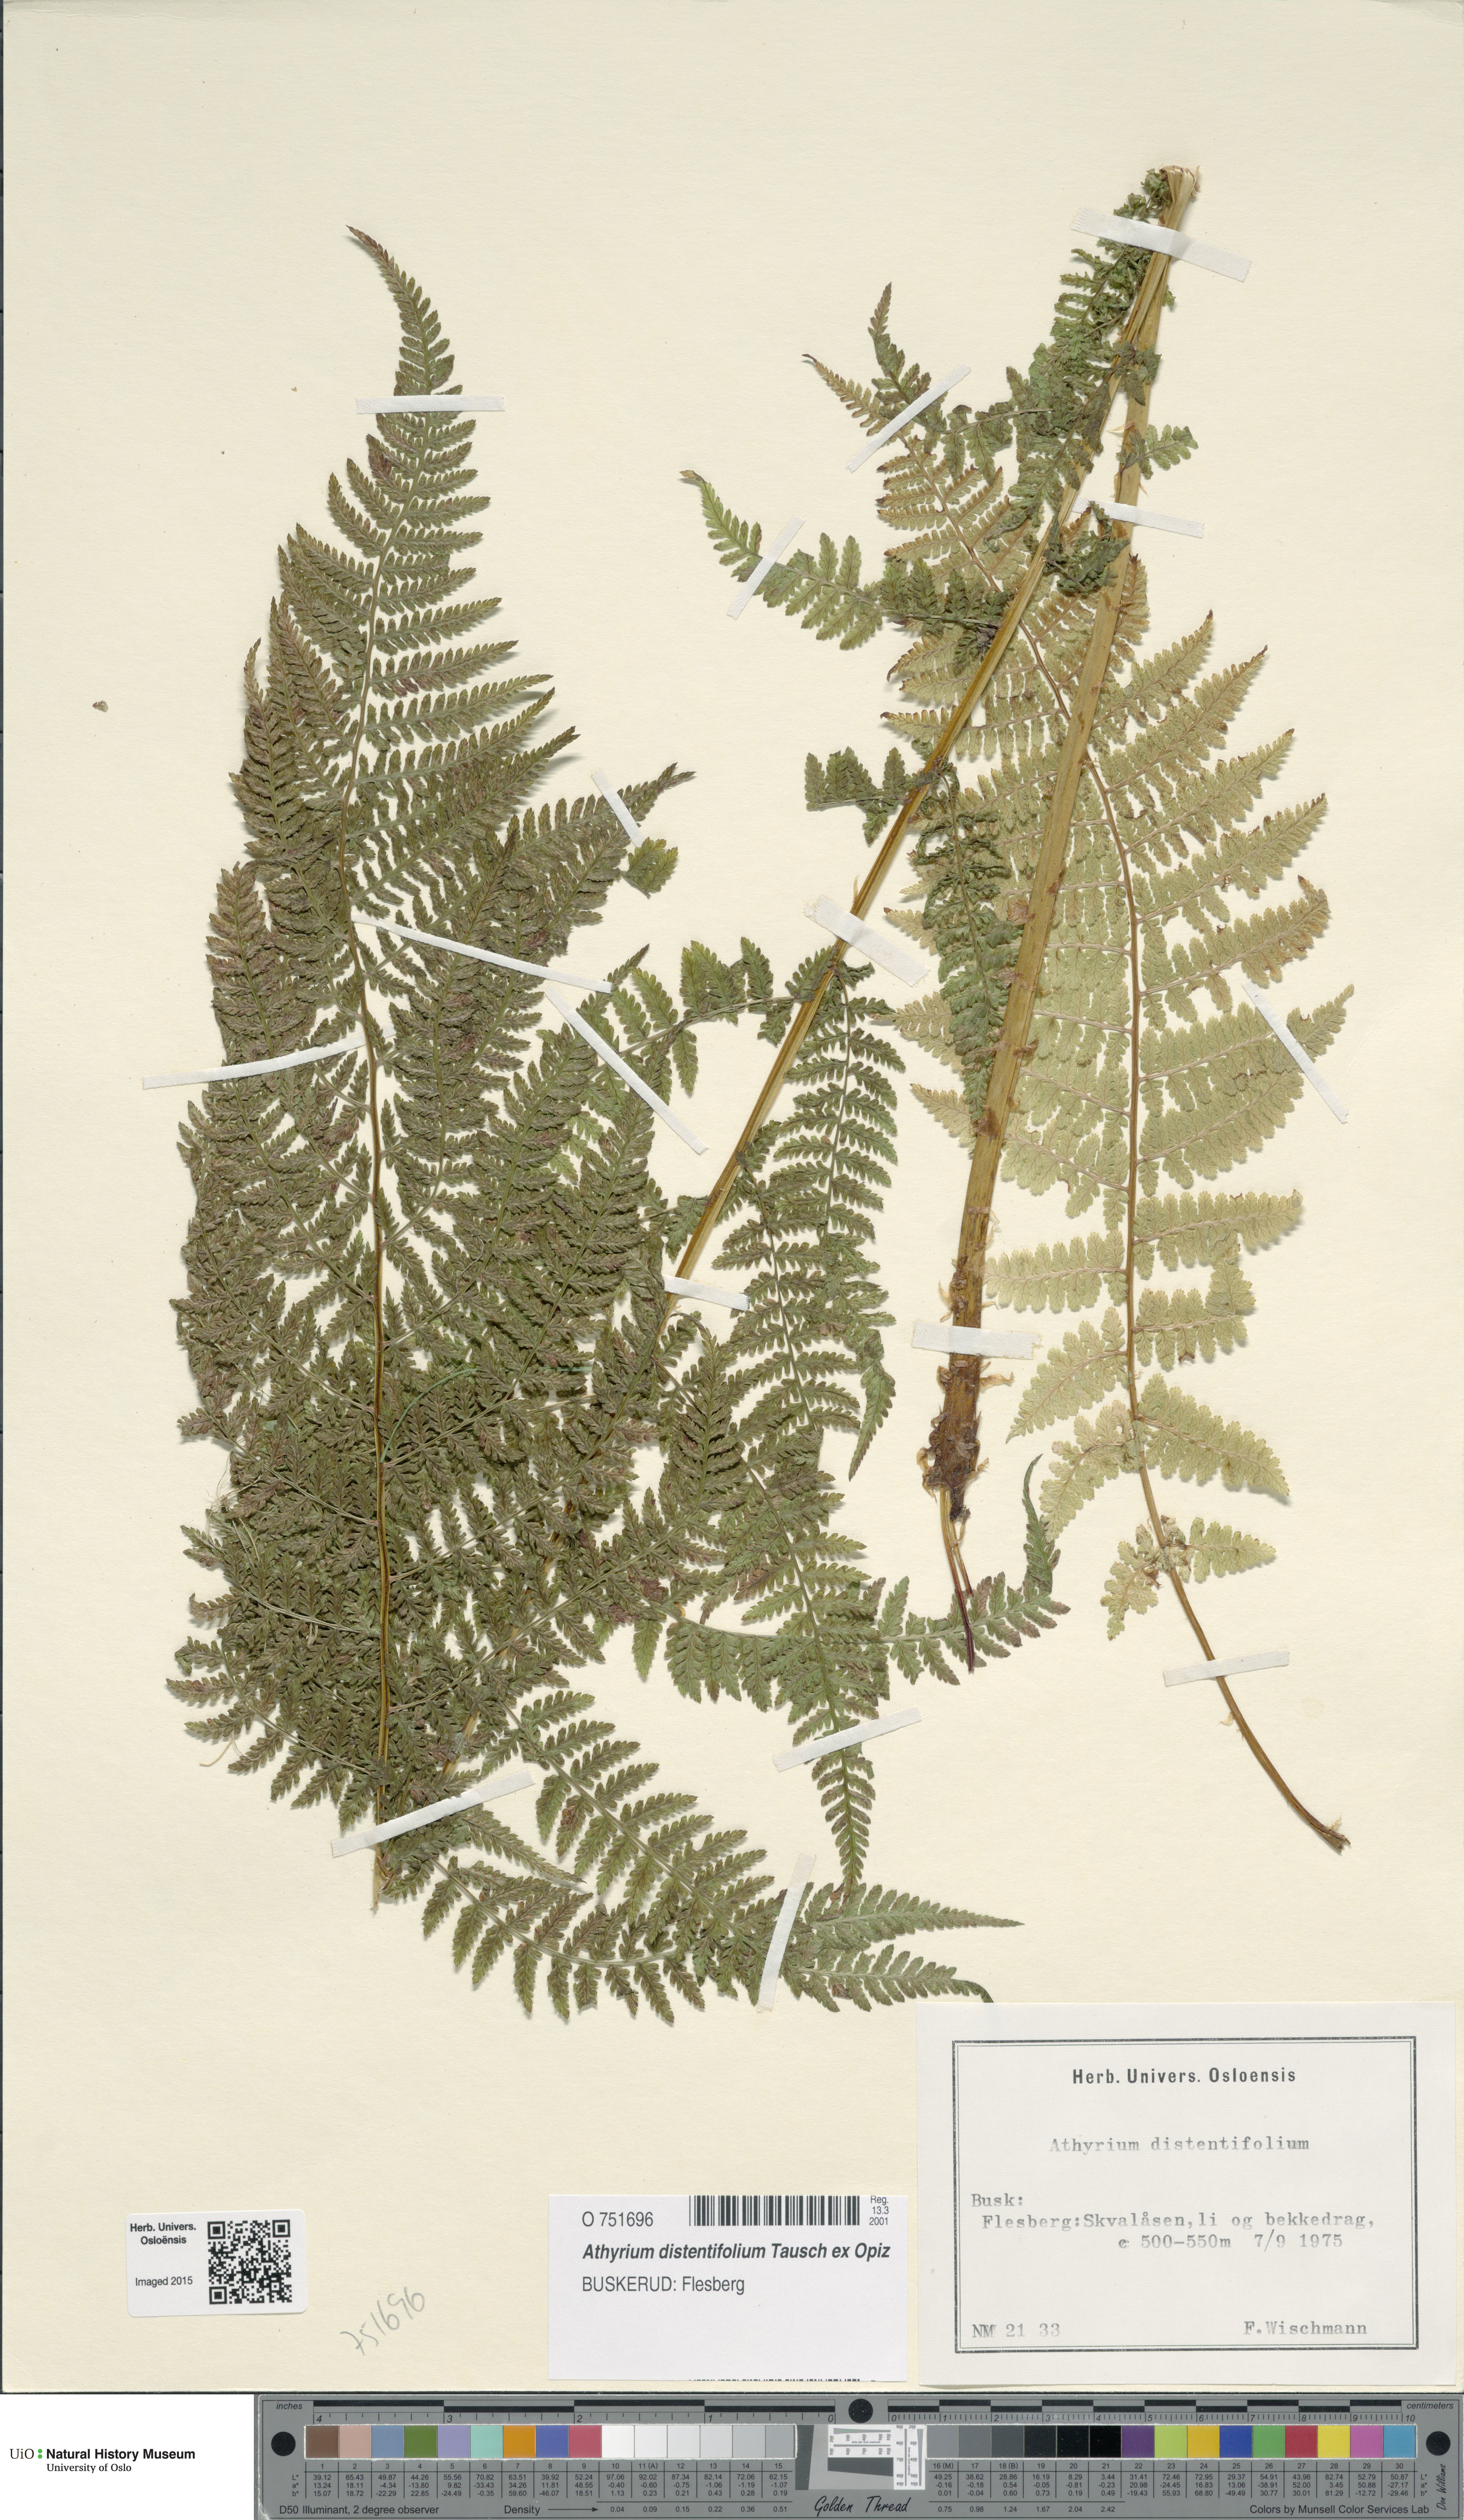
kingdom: Plantae
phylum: Tracheophyta
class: Polypodiopsida
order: Polypodiales
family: Athyriaceae
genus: Pseudathyrium
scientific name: Pseudathyrium alpestre
